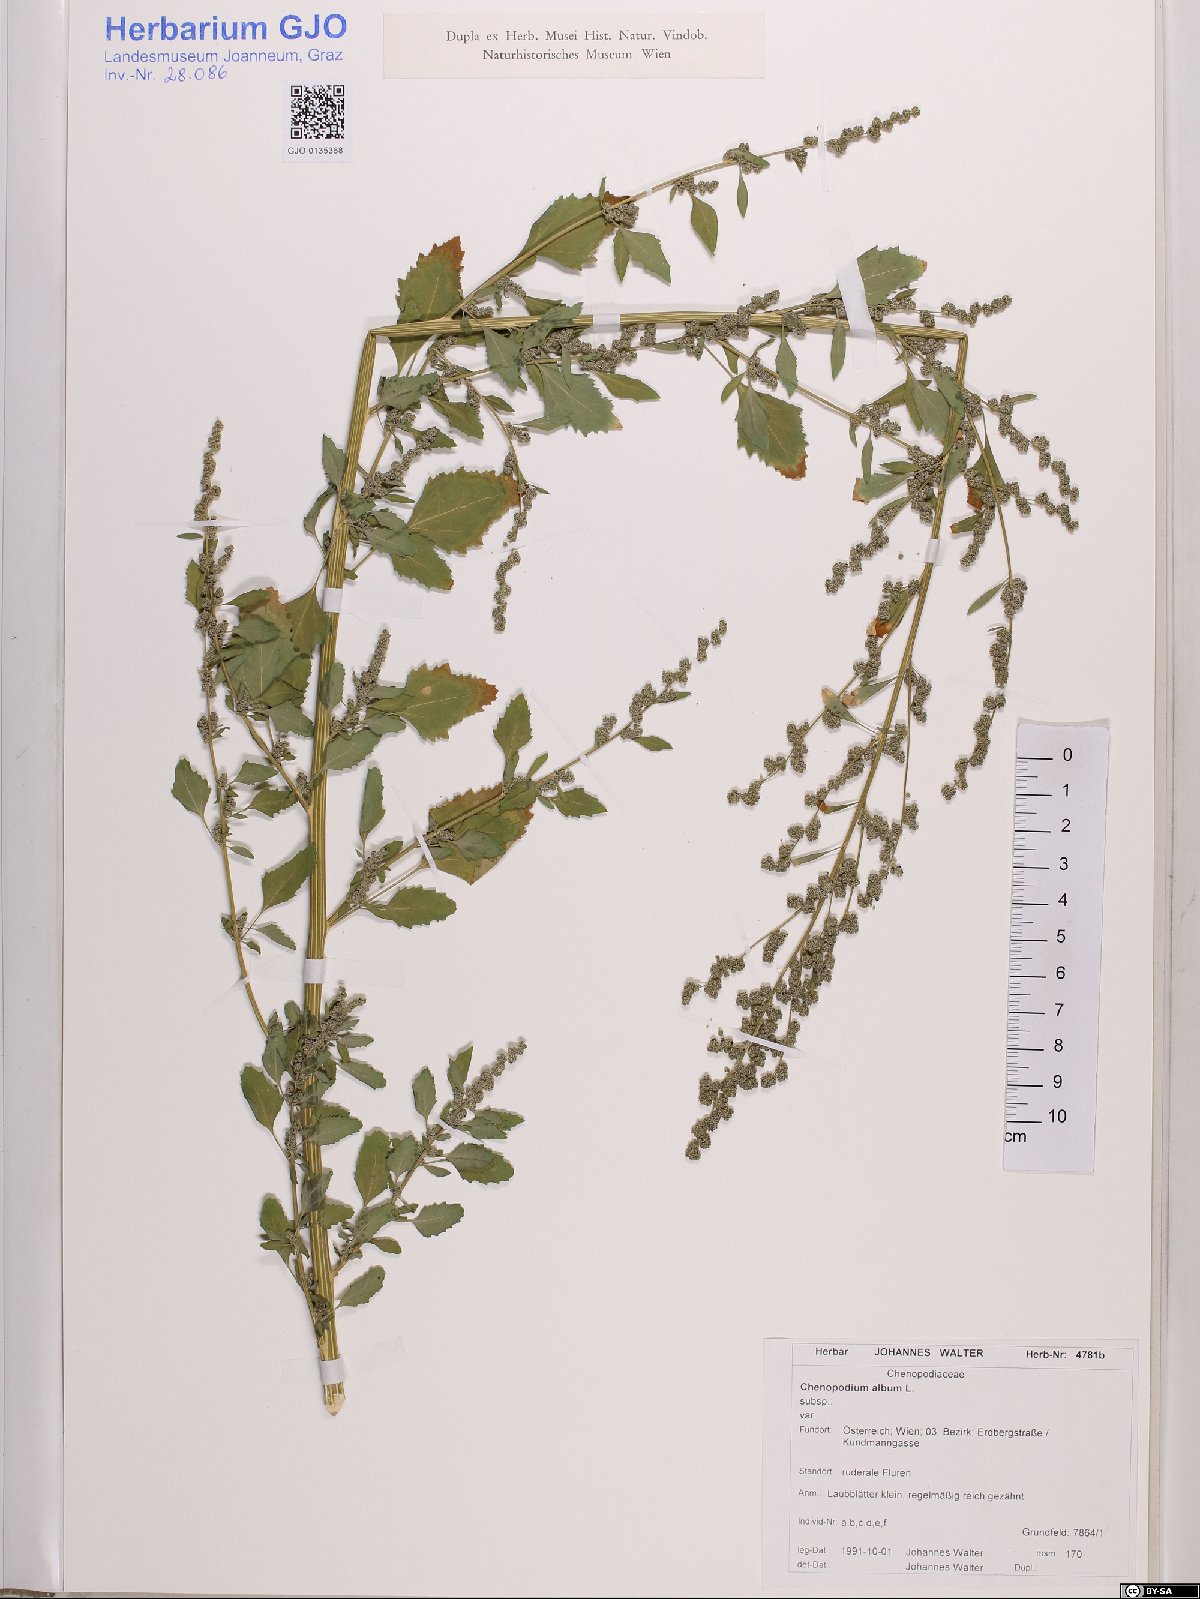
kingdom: Plantae
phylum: Tracheophyta
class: Magnoliopsida
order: Caryophyllales
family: Amaranthaceae
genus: Chenopodium
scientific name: Chenopodium album
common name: Fat-hen
